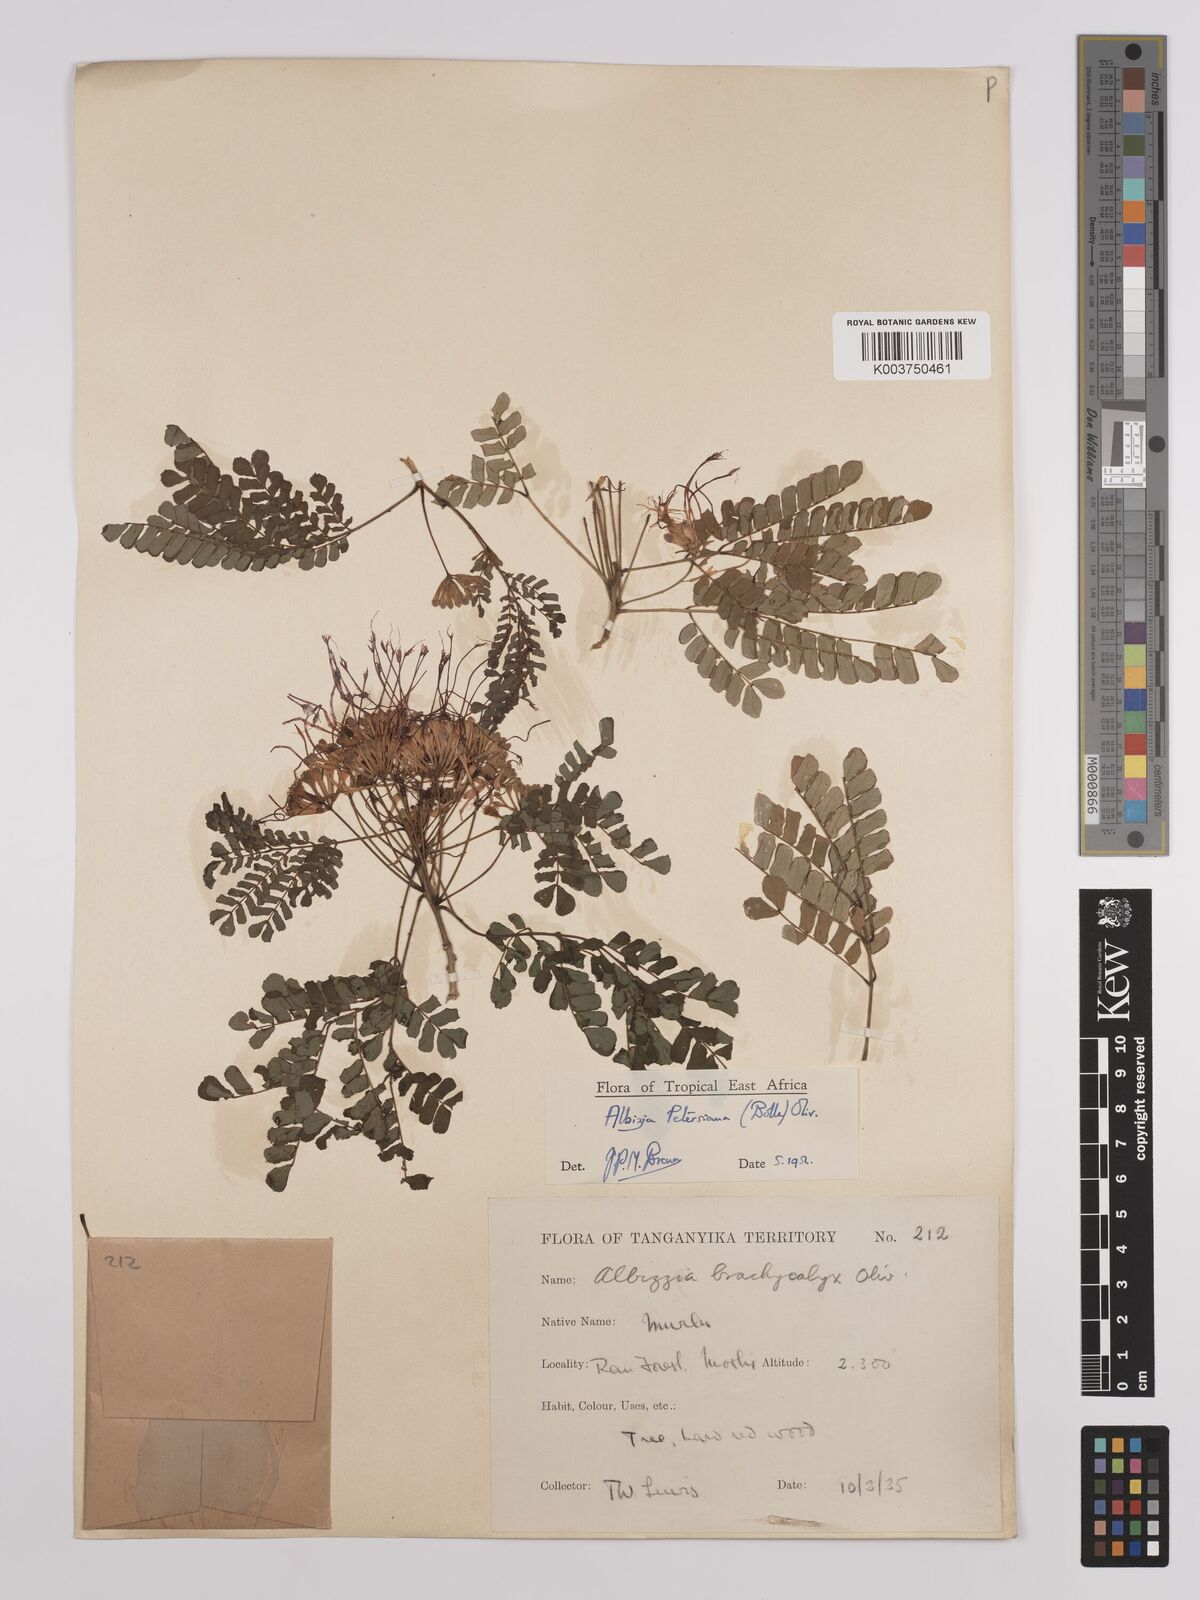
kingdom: Plantae
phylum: Tracheophyta
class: Magnoliopsida
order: Fabales
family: Fabaceae
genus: Albizia
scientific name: Albizia petersiana
